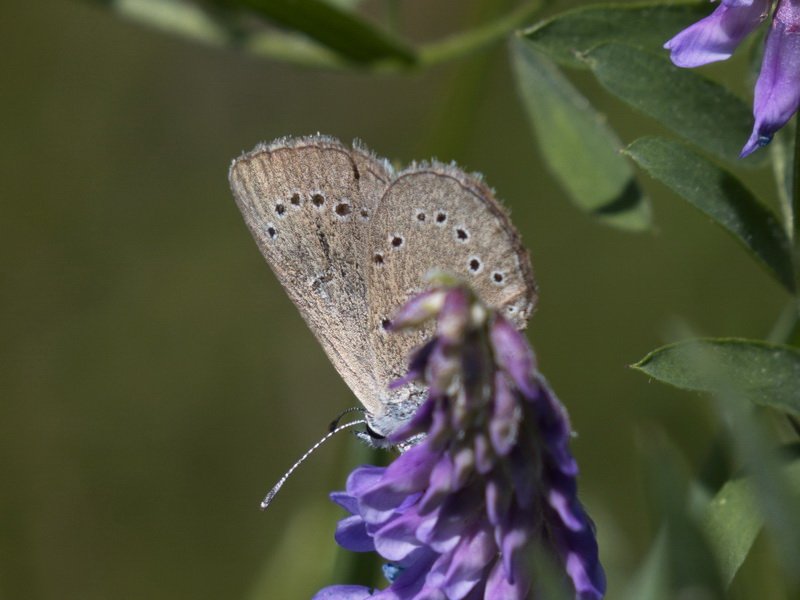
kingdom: Animalia
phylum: Arthropoda
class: Insecta
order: Lepidoptera
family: Lycaenidae
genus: Glaucopsyche
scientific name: Glaucopsyche lygdamus
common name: Silvery Blue
